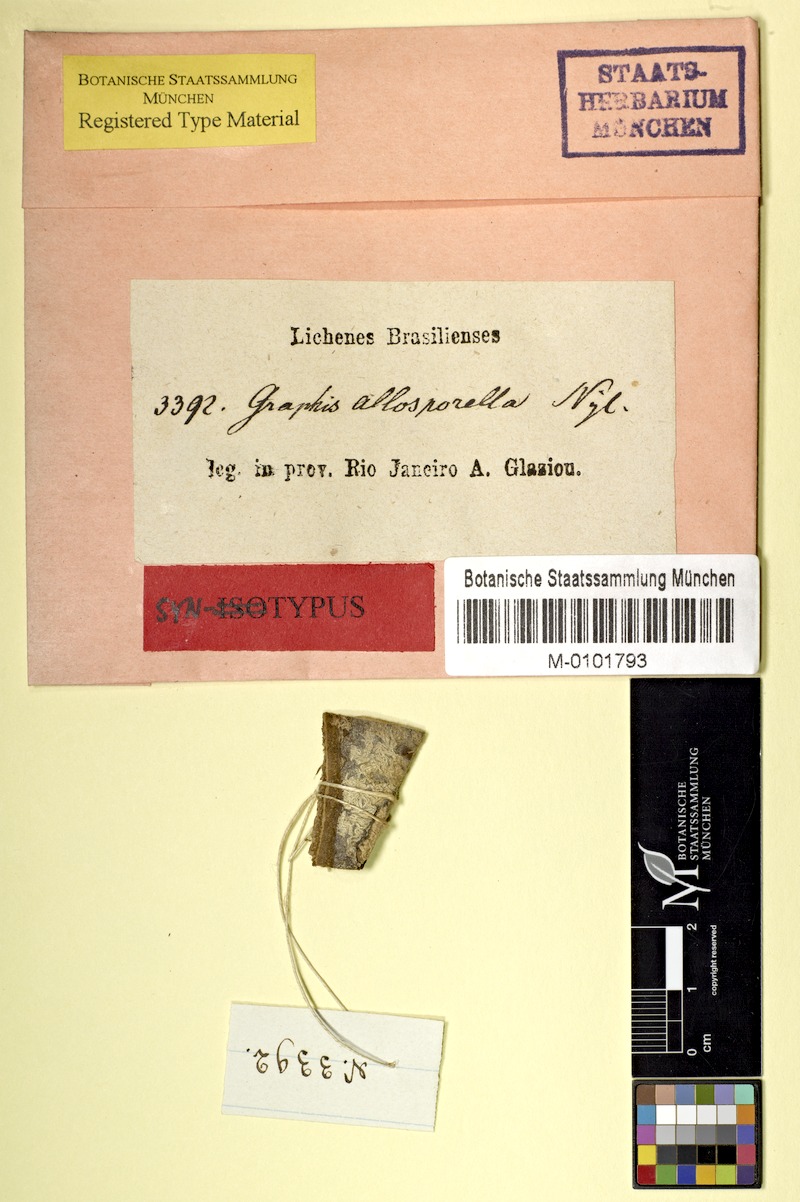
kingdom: Fungi
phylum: Ascomycota
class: Lecanoromycetes
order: Ostropales
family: Graphidaceae
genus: Platythecium
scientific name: Platythecium allosporellum
